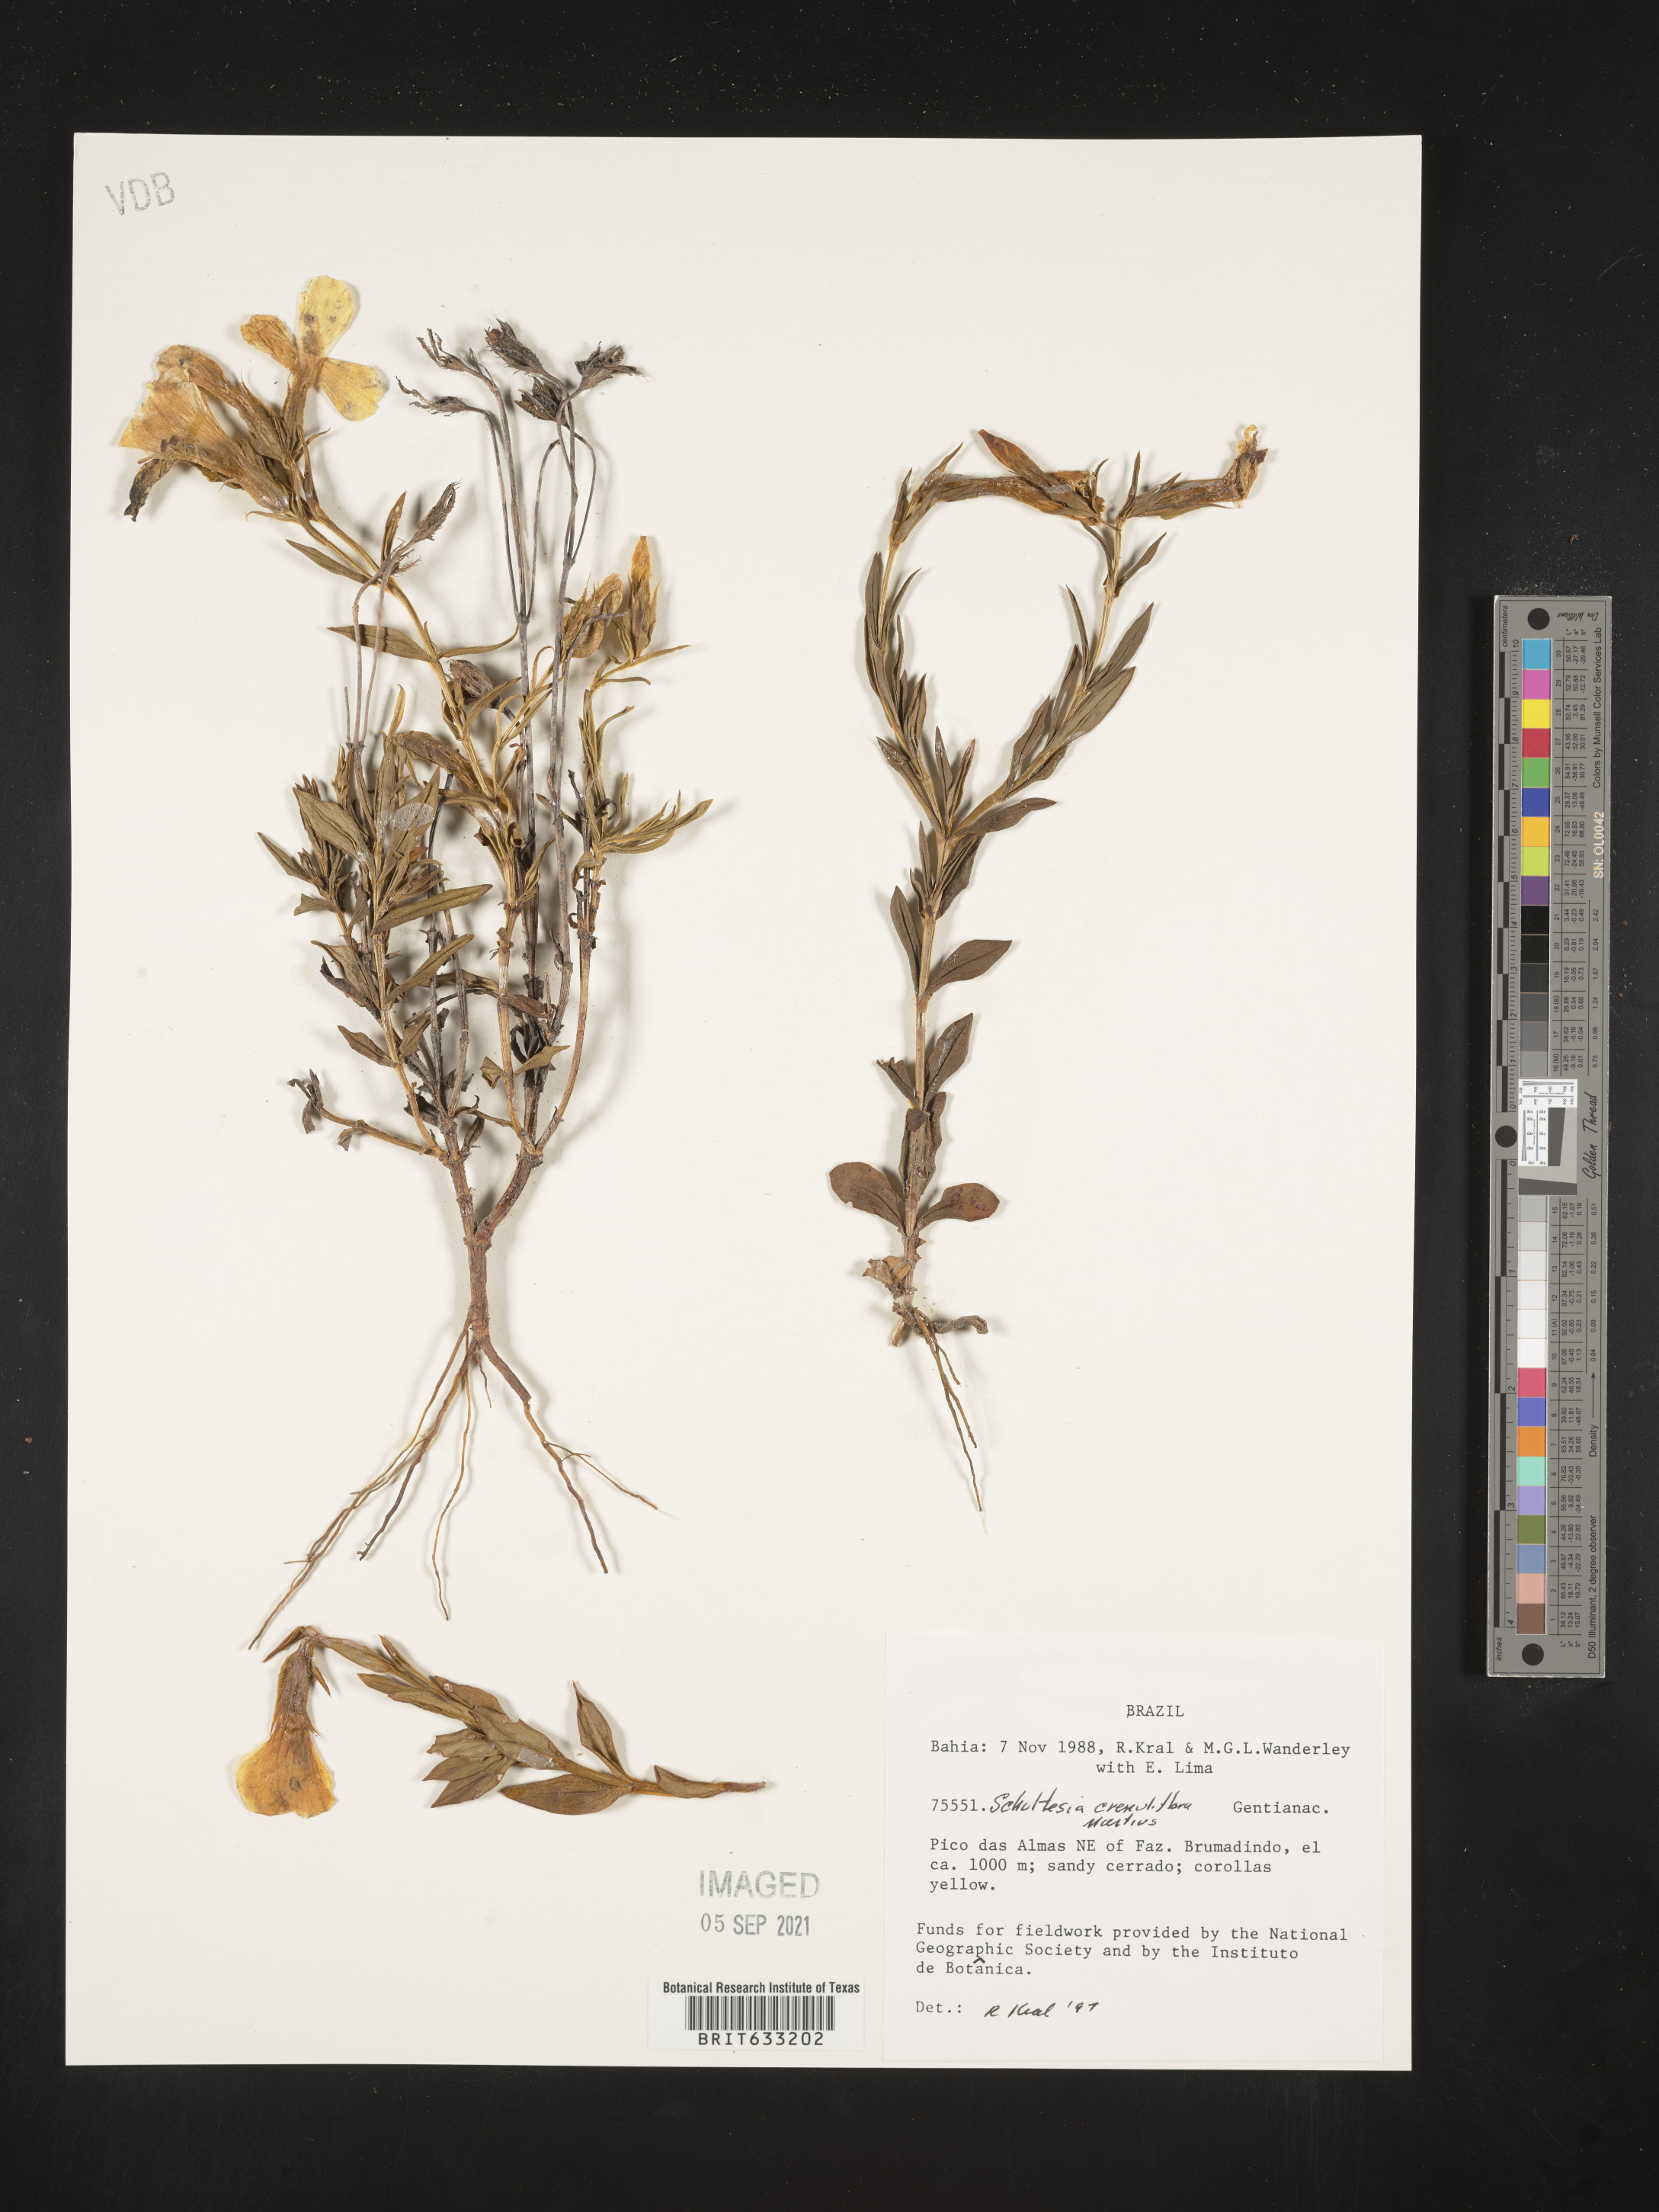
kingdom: Plantae
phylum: Tracheophyta
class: Magnoliopsida
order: Gentianales
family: Gentianaceae
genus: Schultesia
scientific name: Schultesia
